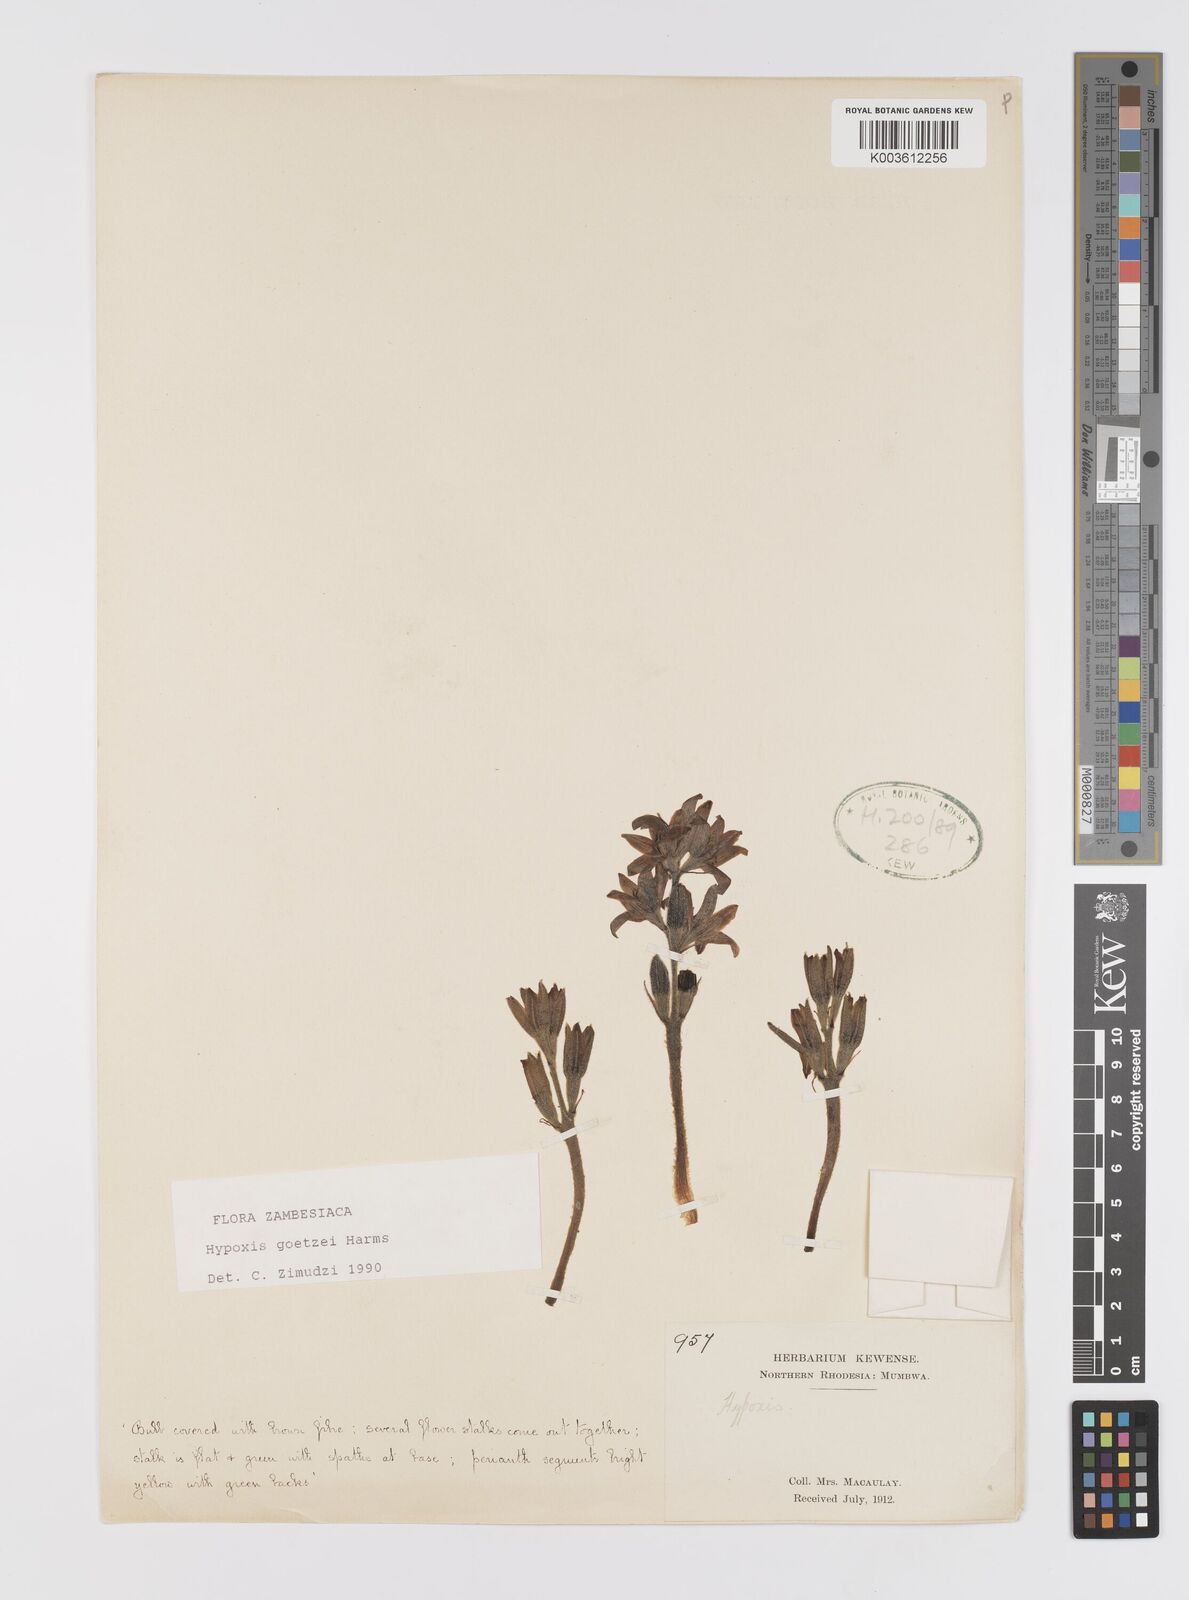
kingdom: Plantae
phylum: Tracheophyta
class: Liliopsida
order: Asparagales
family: Hypoxidaceae
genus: Hypoxis
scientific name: Hypoxis goetzei
